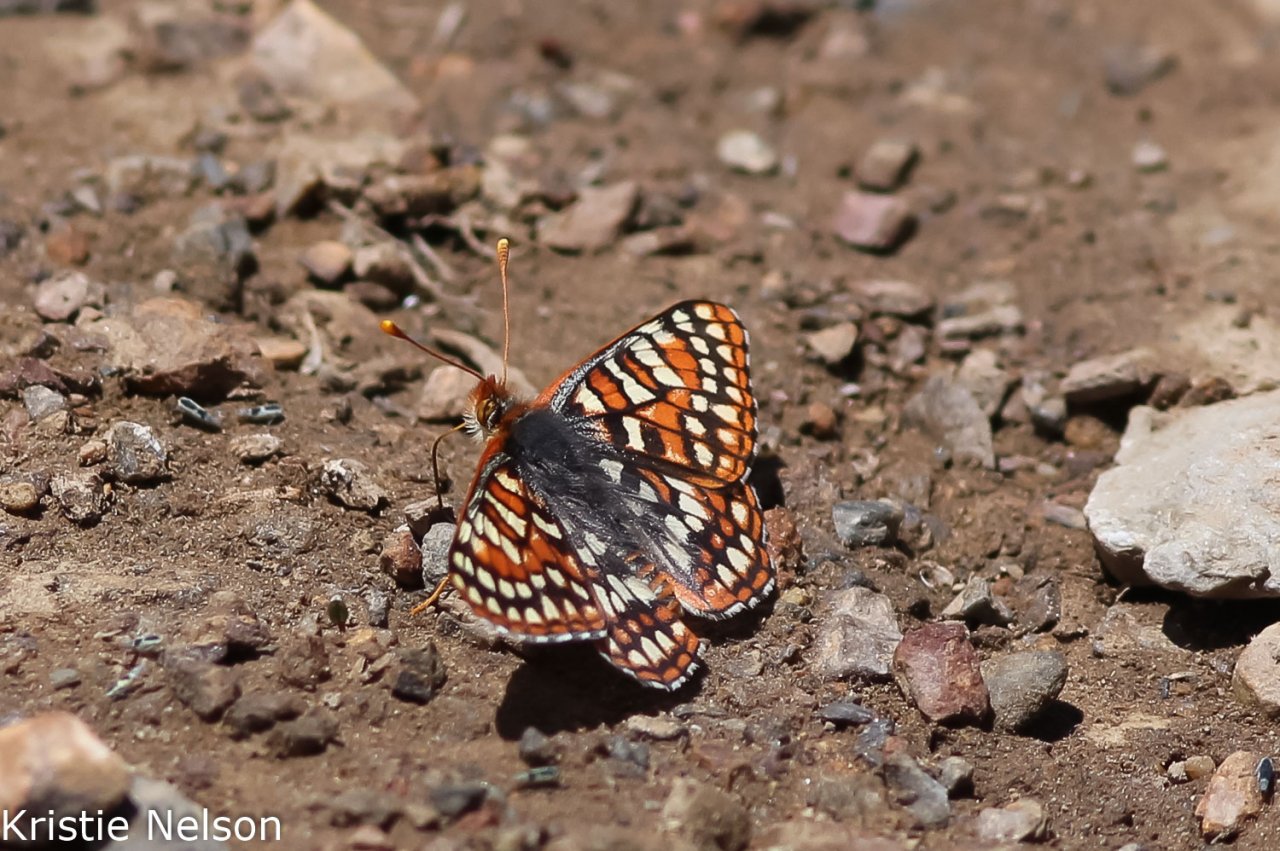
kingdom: Animalia
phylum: Arthropoda
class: Insecta
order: Lepidoptera
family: Nymphalidae
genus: Occidryas
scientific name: Occidryas editha
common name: Edith's Checkerspot
